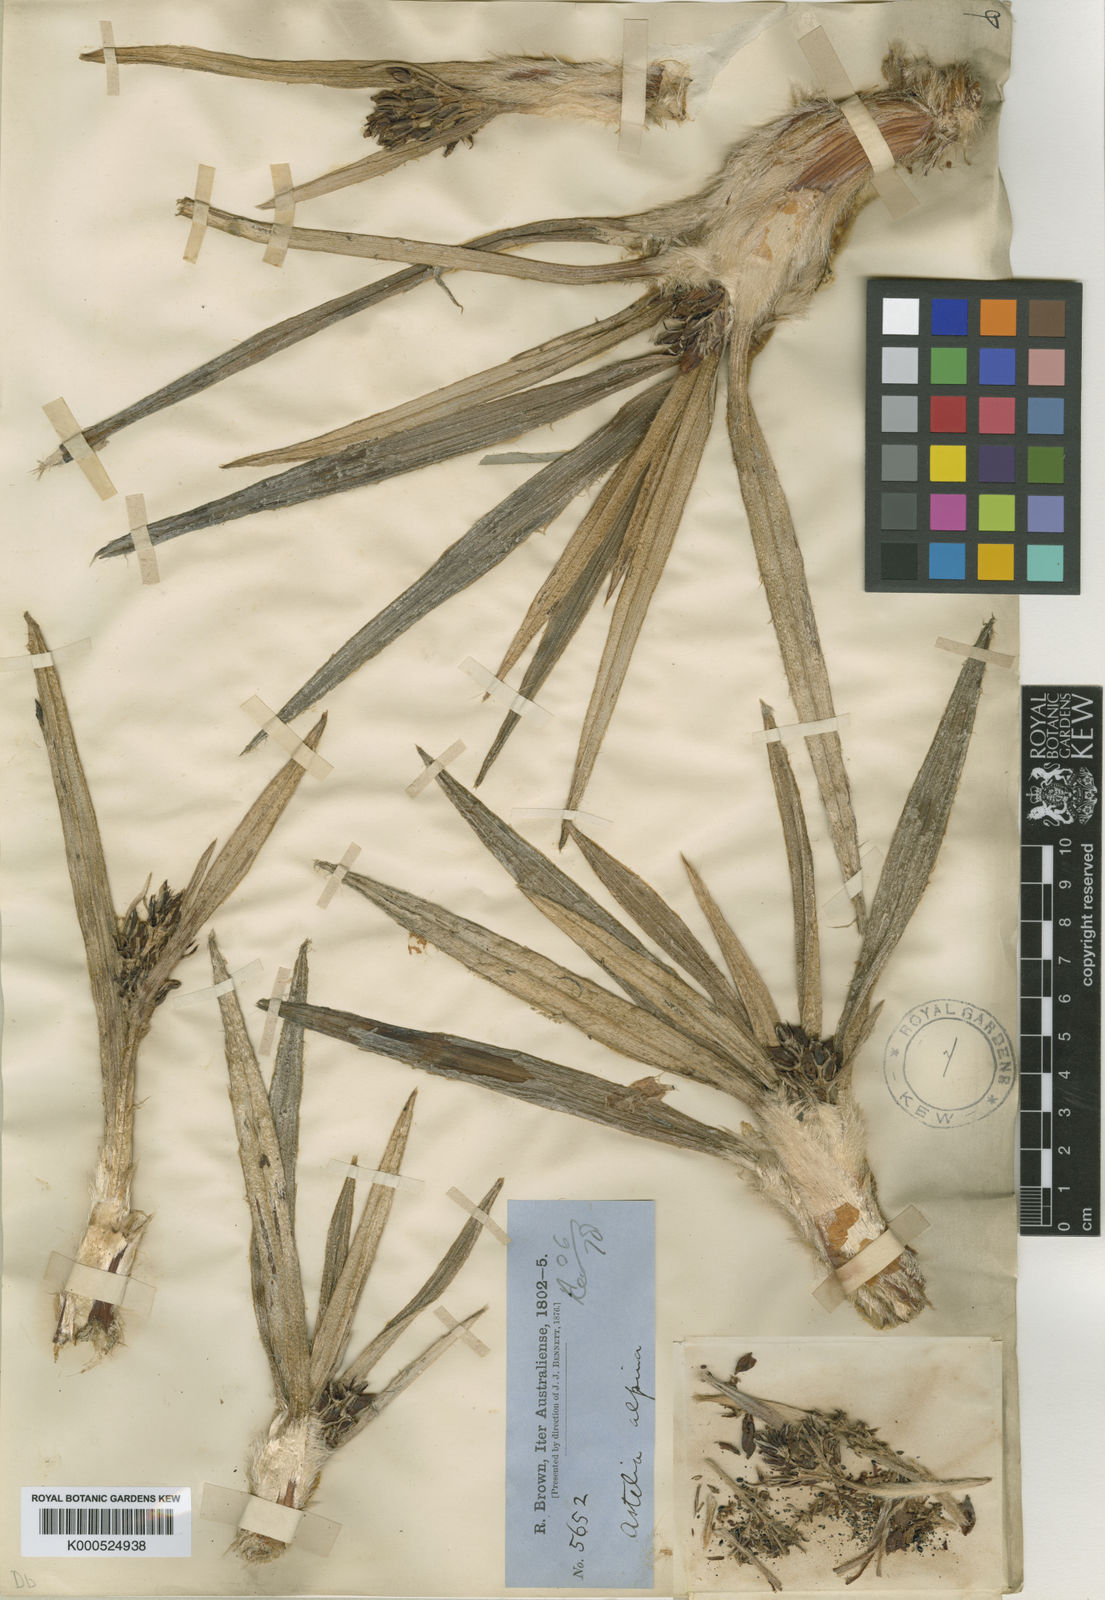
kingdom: Plantae
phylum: Tracheophyta
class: Liliopsida
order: Asparagales
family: Asteliaceae
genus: Astelia
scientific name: Astelia alpina
